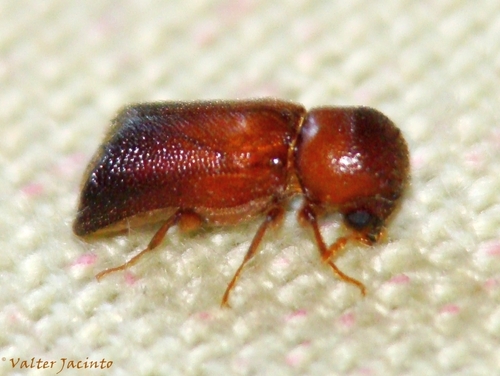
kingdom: Animalia
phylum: Arthropoda
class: Insecta
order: Coleoptera
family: Bostrichidae
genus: Scobicia
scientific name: Scobicia chevrieri
